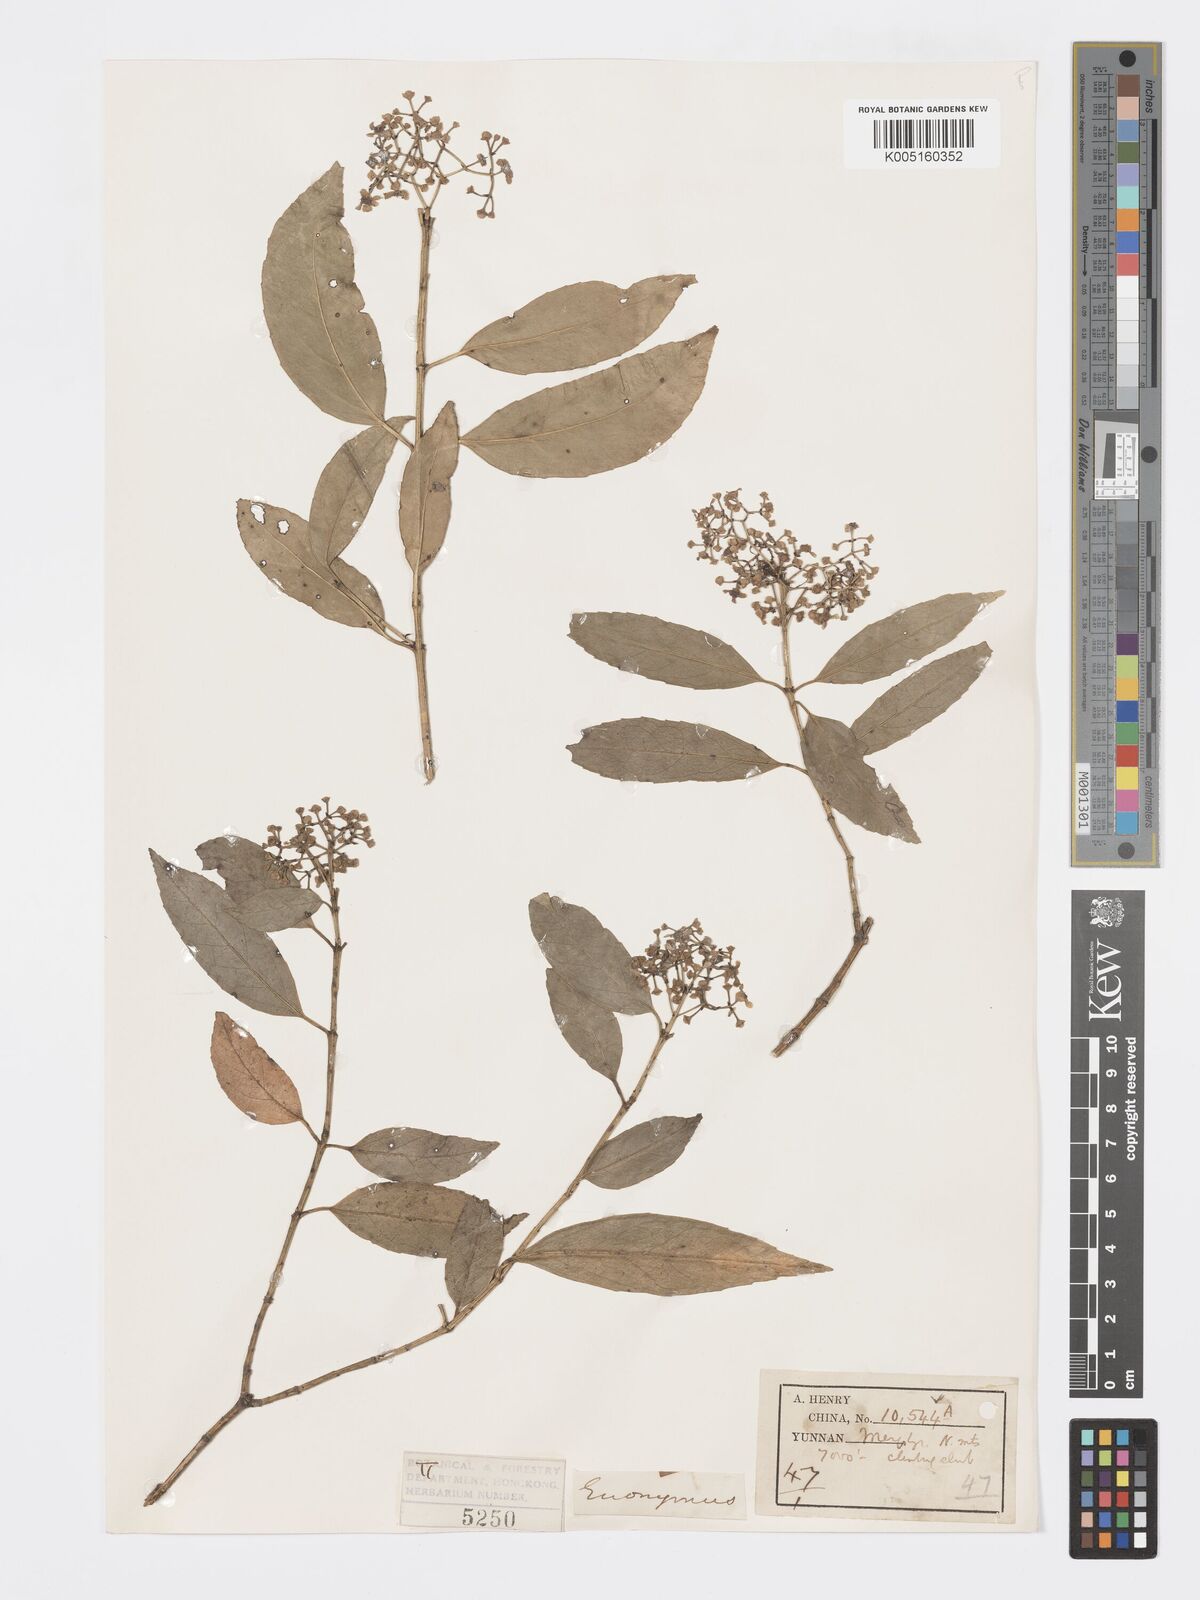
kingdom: Plantae
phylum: Tracheophyta
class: Magnoliopsida
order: Celastrales
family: Celastraceae
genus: Euonymus
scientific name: Euonymus
